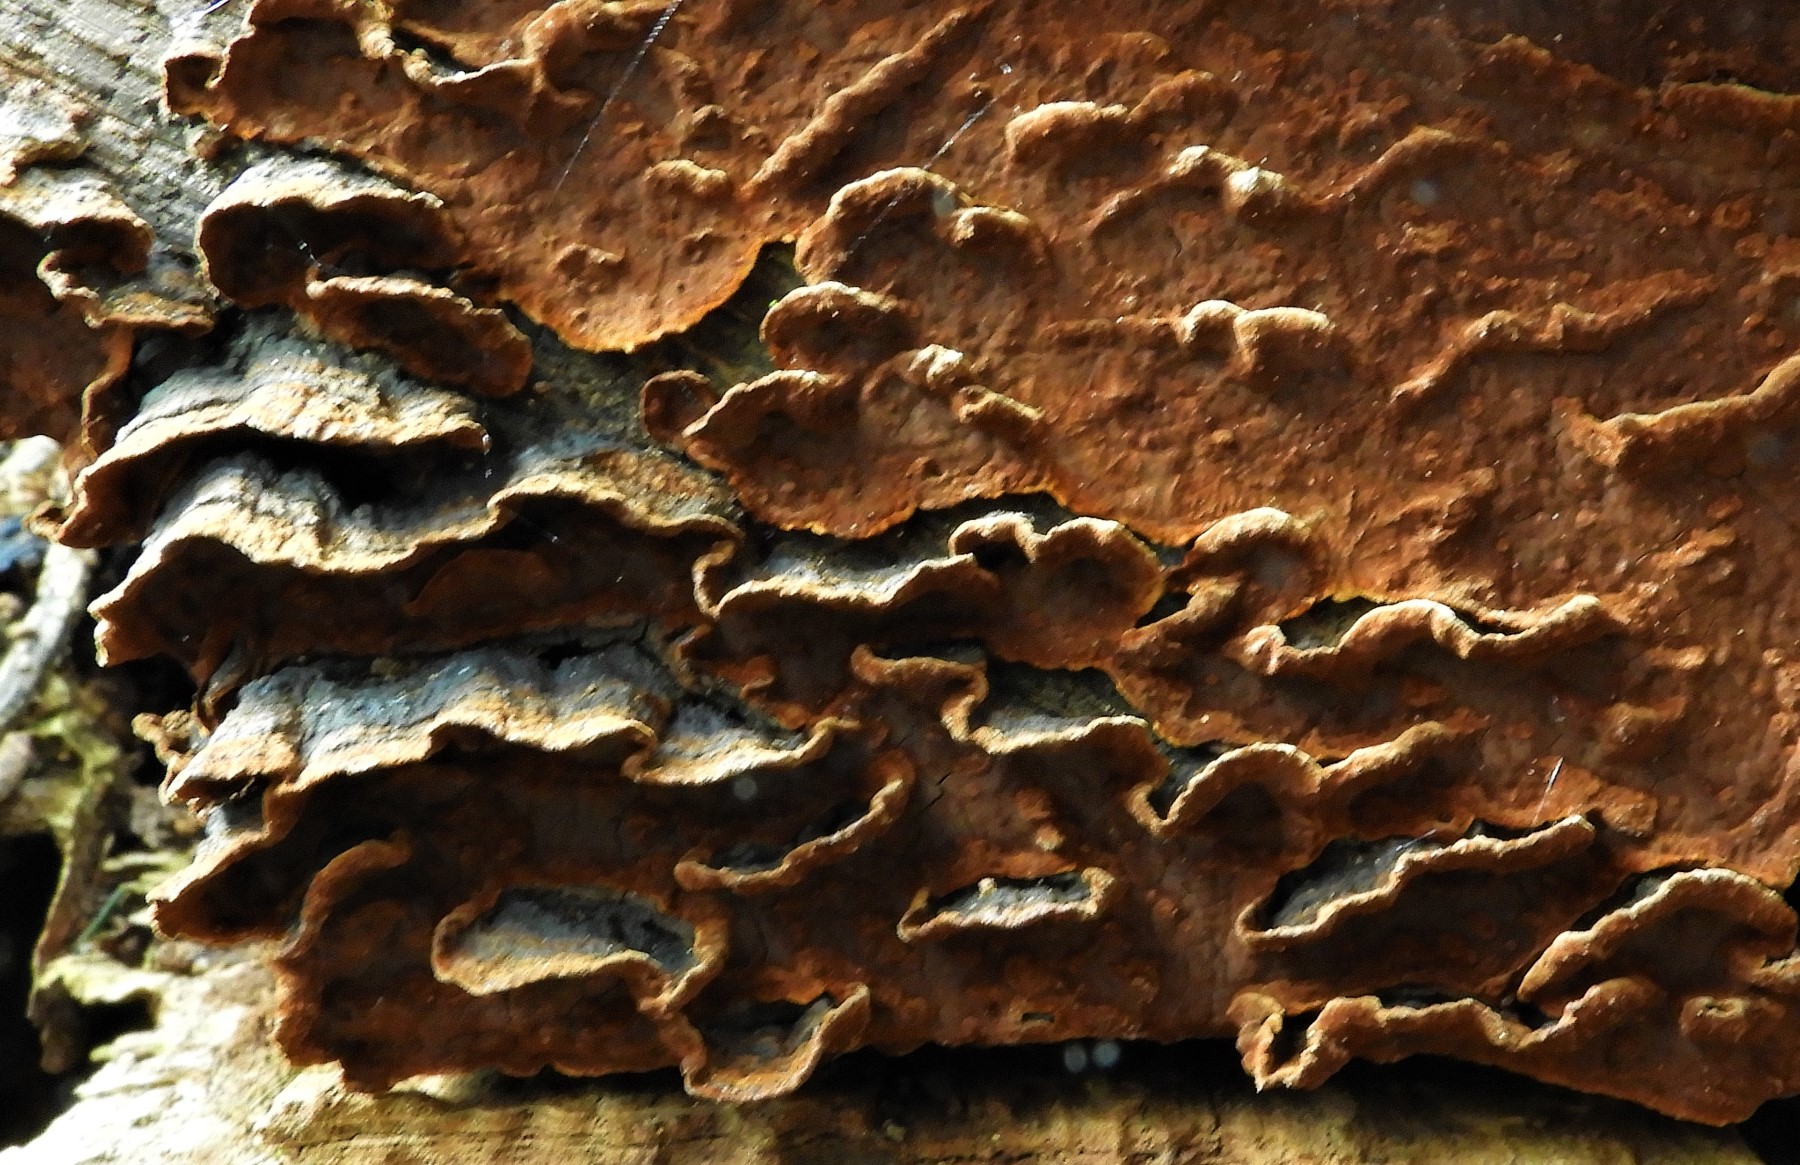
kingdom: Fungi
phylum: Basidiomycota
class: Agaricomycetes
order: Hymenochaetales
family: Hymenochaetaceae
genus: Hymenochaete
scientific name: Hymenochaete rubiginosa
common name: stiv ruslædersvamp
